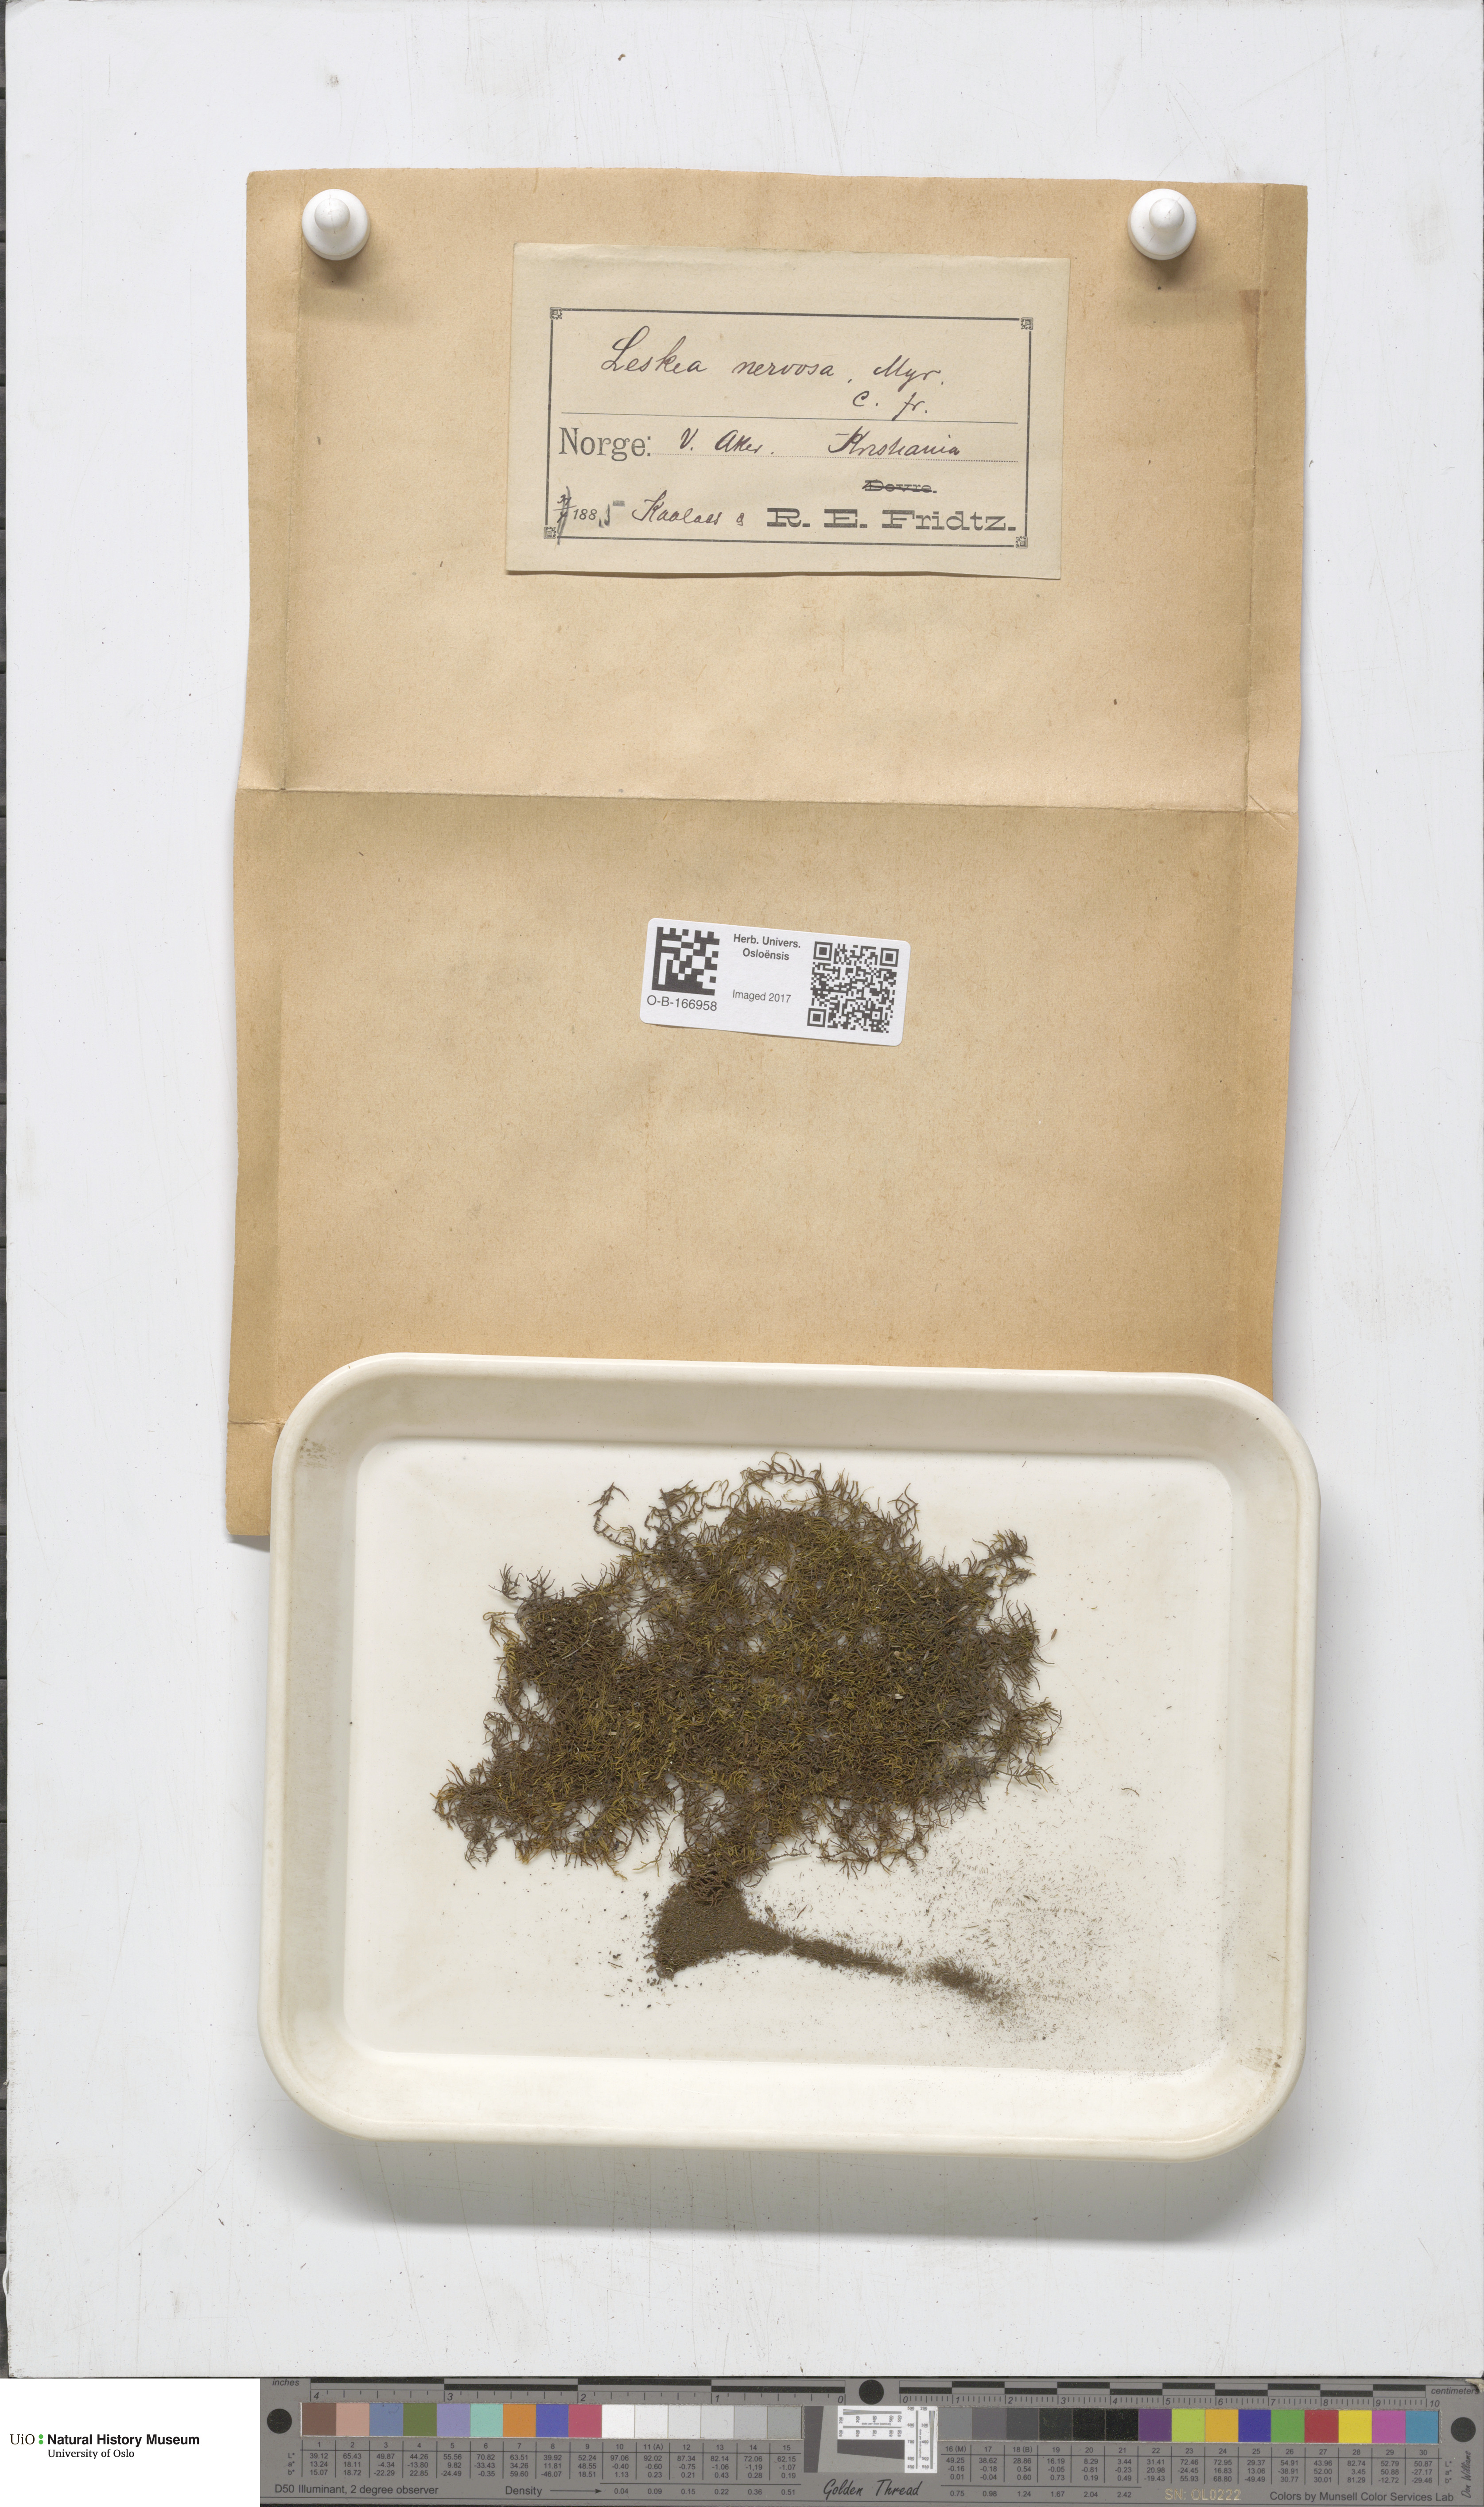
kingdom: Plantae
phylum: Bryophyta
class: Bryopsida
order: Hypnales
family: Pseudoleskeellaceae
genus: Pseudoleskeella
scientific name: Pseudoleskeella nervosa
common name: Nerved leske's moss
